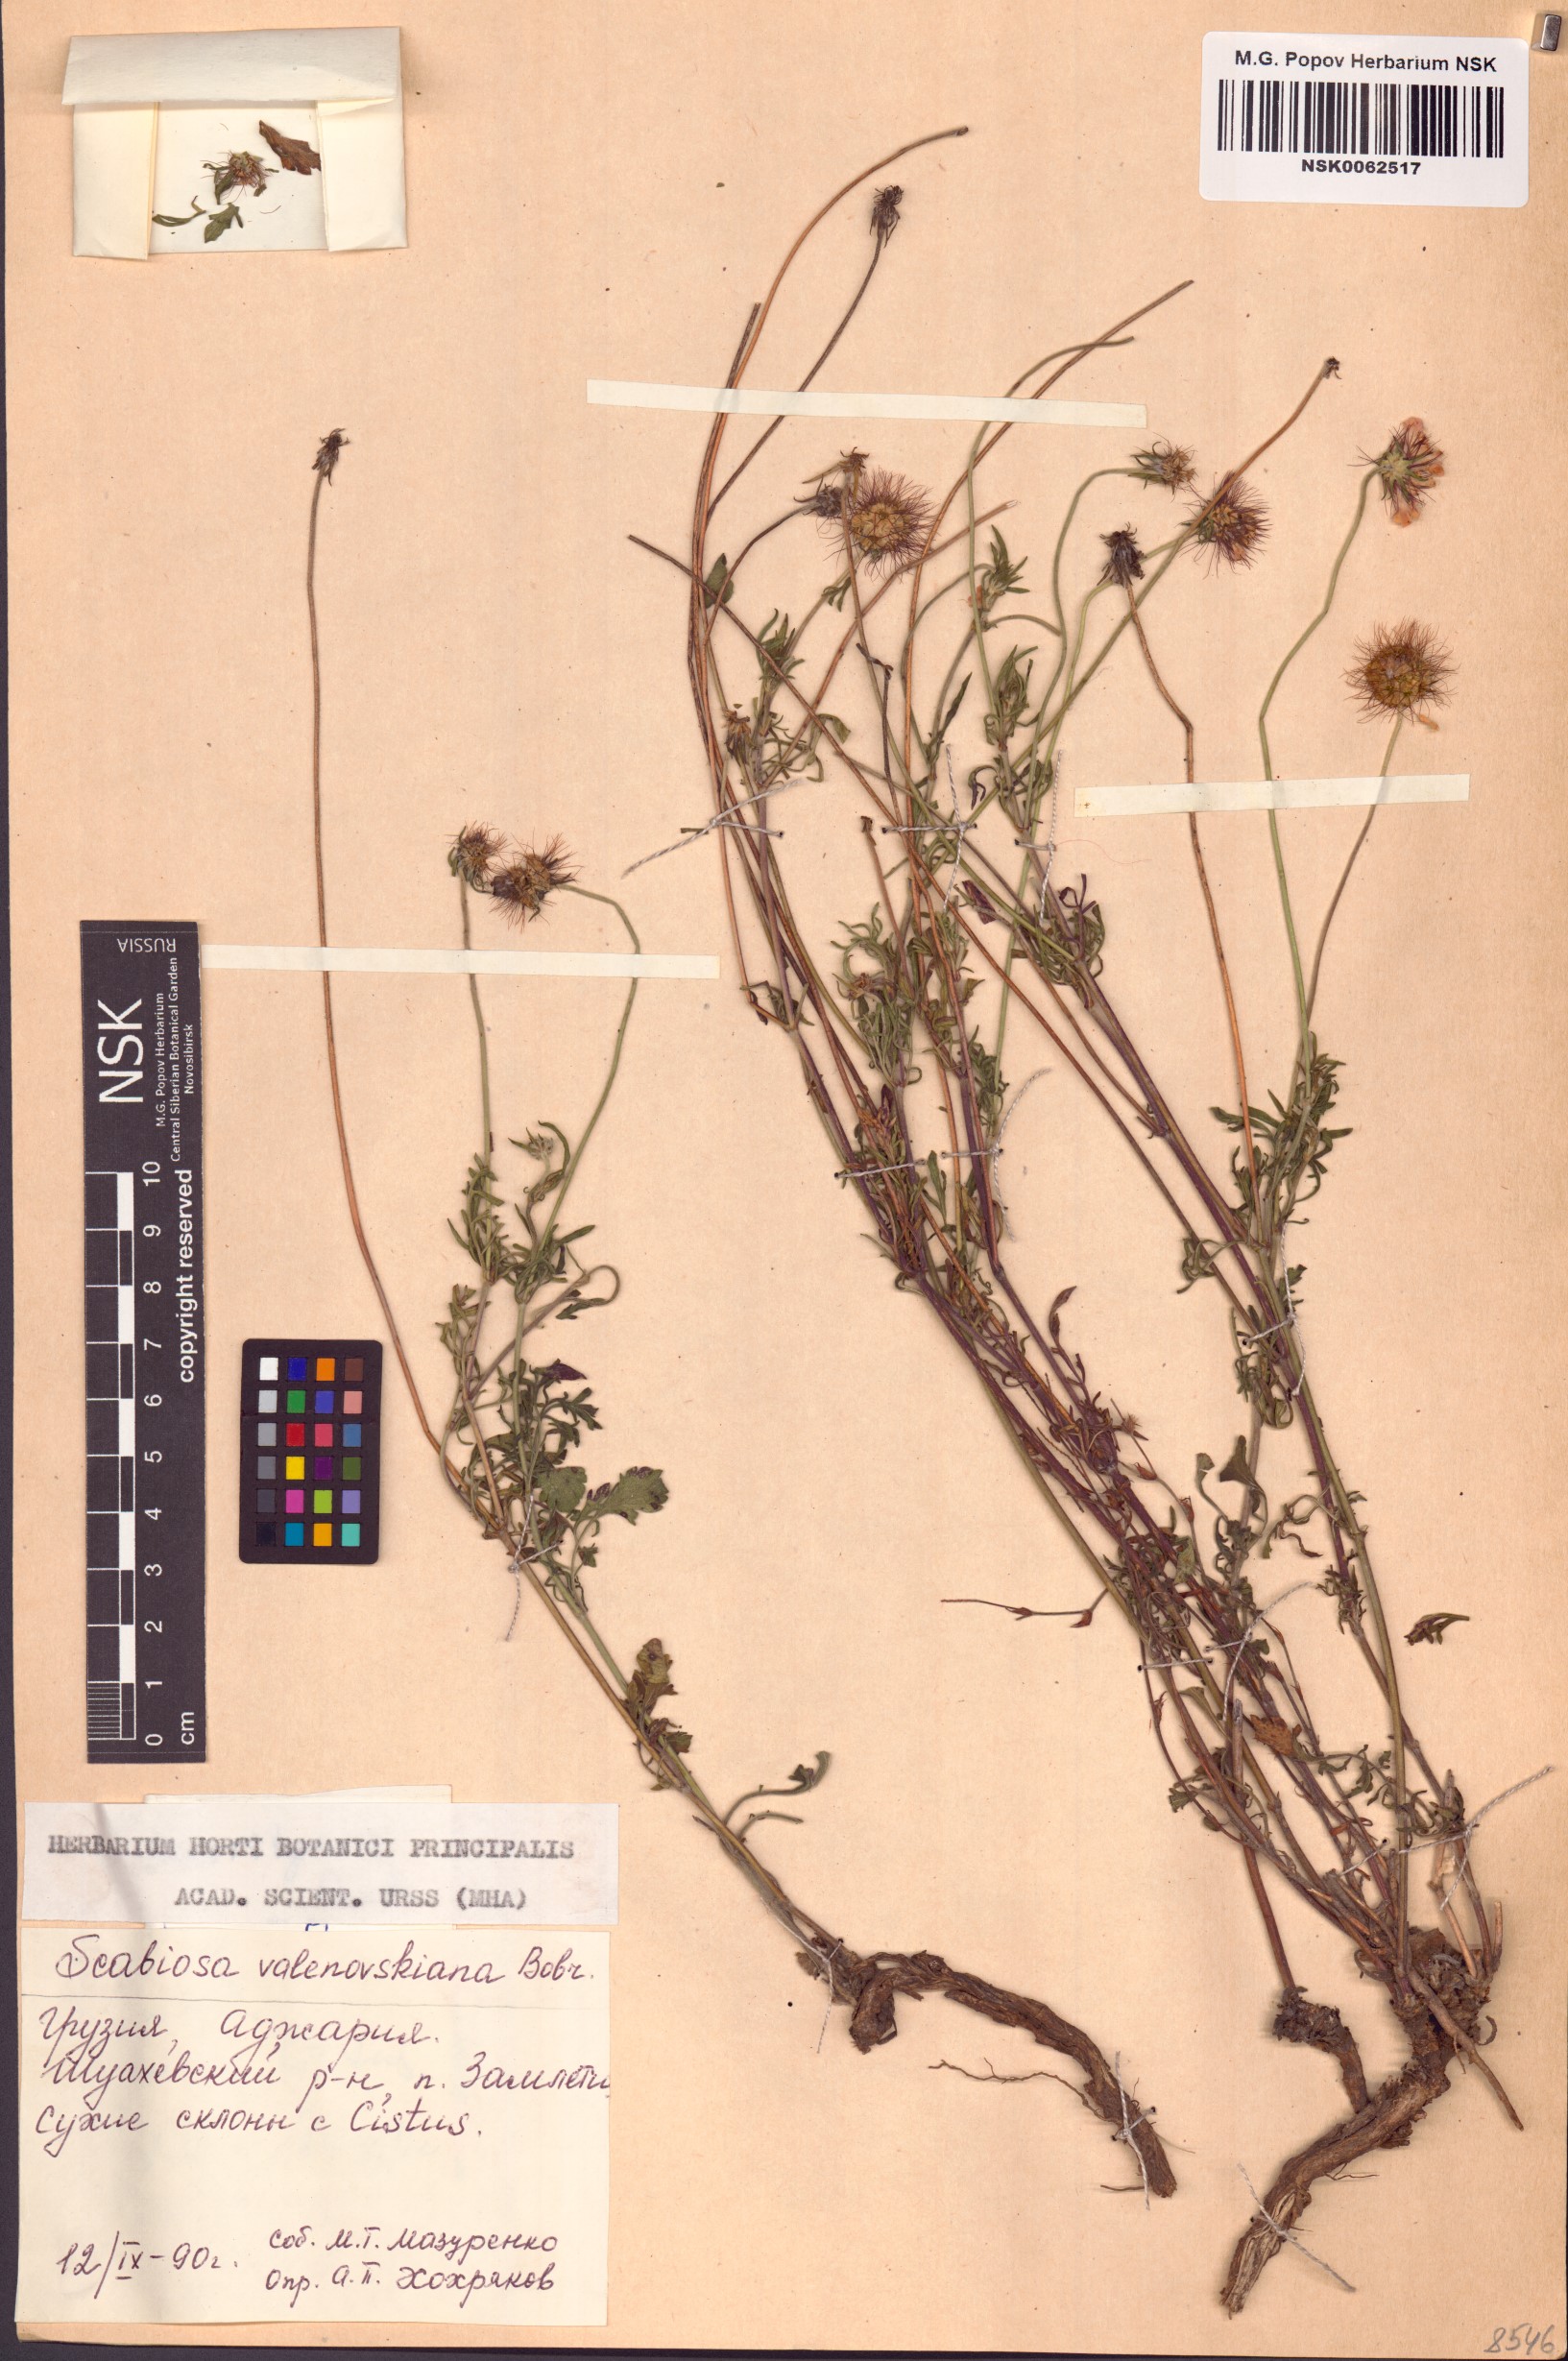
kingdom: Plantae
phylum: Tracheophyta
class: Magnoliopsida
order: Dipsacales
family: Caprifoliaceae
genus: Scabiosa
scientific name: Scabiosa velenovskiana
